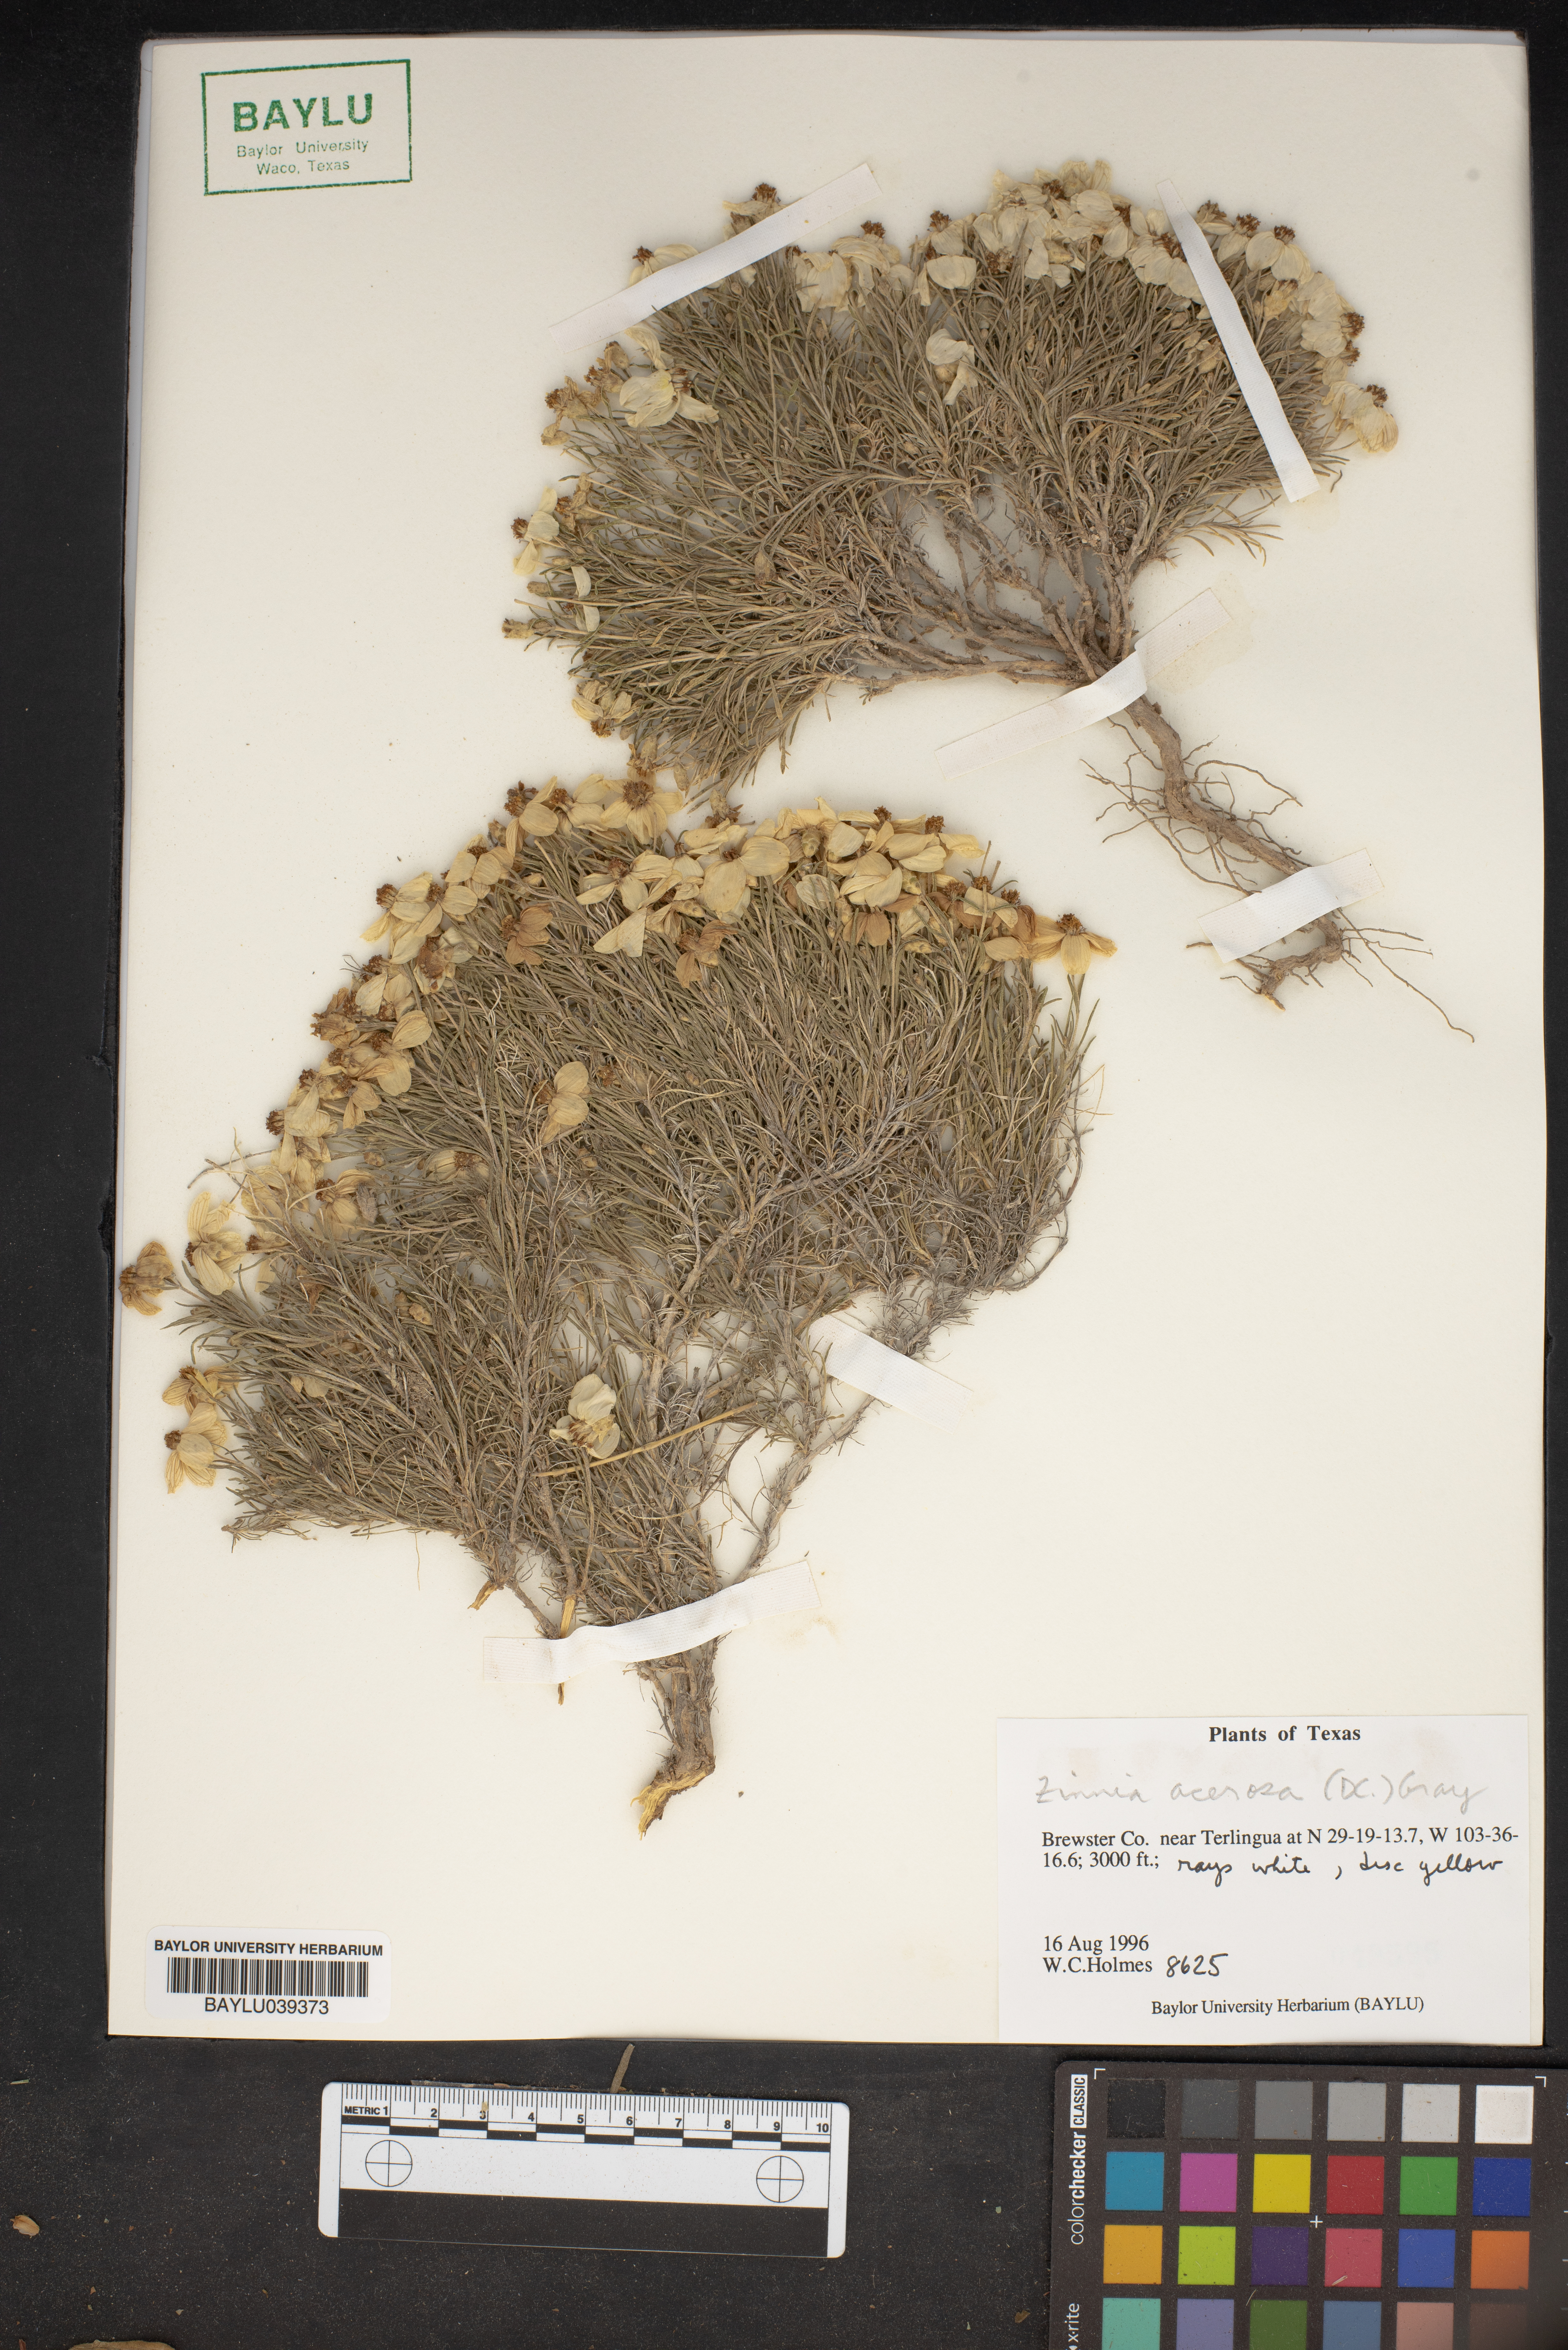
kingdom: Plantae
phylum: Tracheophyta
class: Magnoliopsida
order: Asterales
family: Asteraceae
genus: Zinnia
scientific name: Zinnia acerosa
